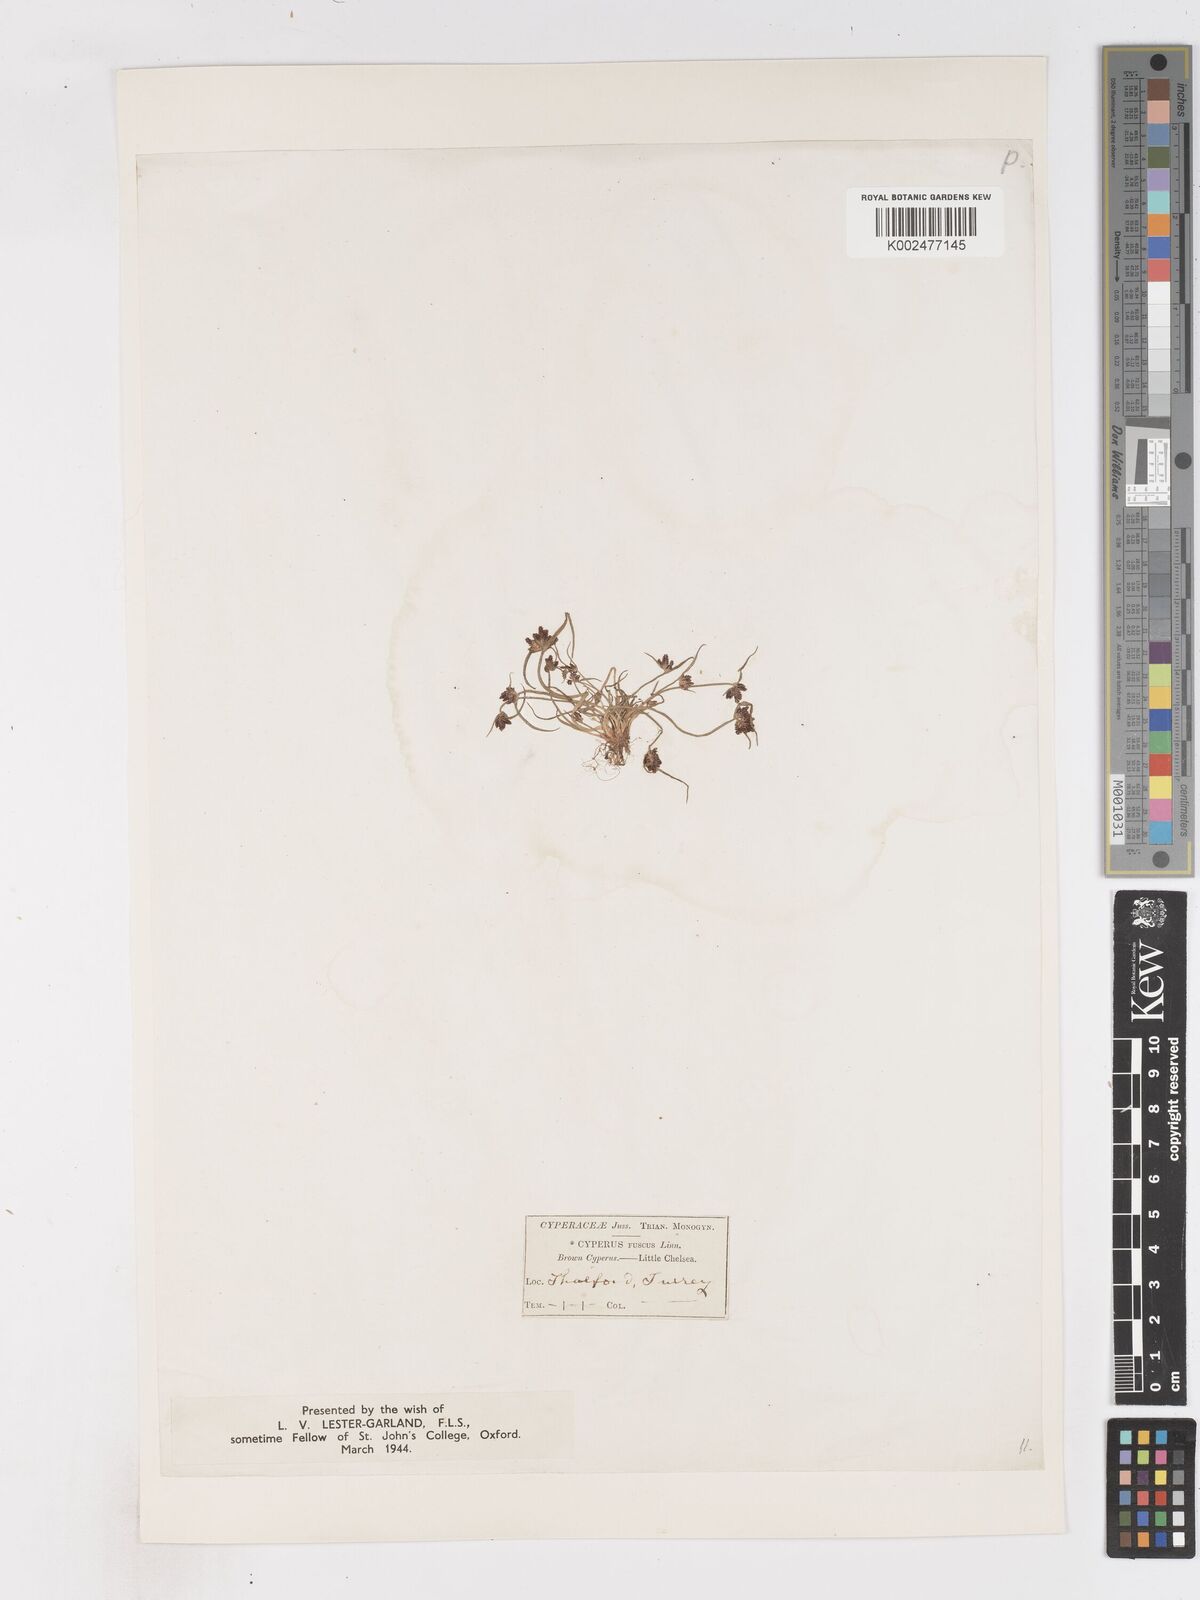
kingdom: Plantae
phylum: Tracheophyta
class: Liliopsida
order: Poales
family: Cyperaceae
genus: Cyperus
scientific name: Cyperus fuscus
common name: Brown galingale
